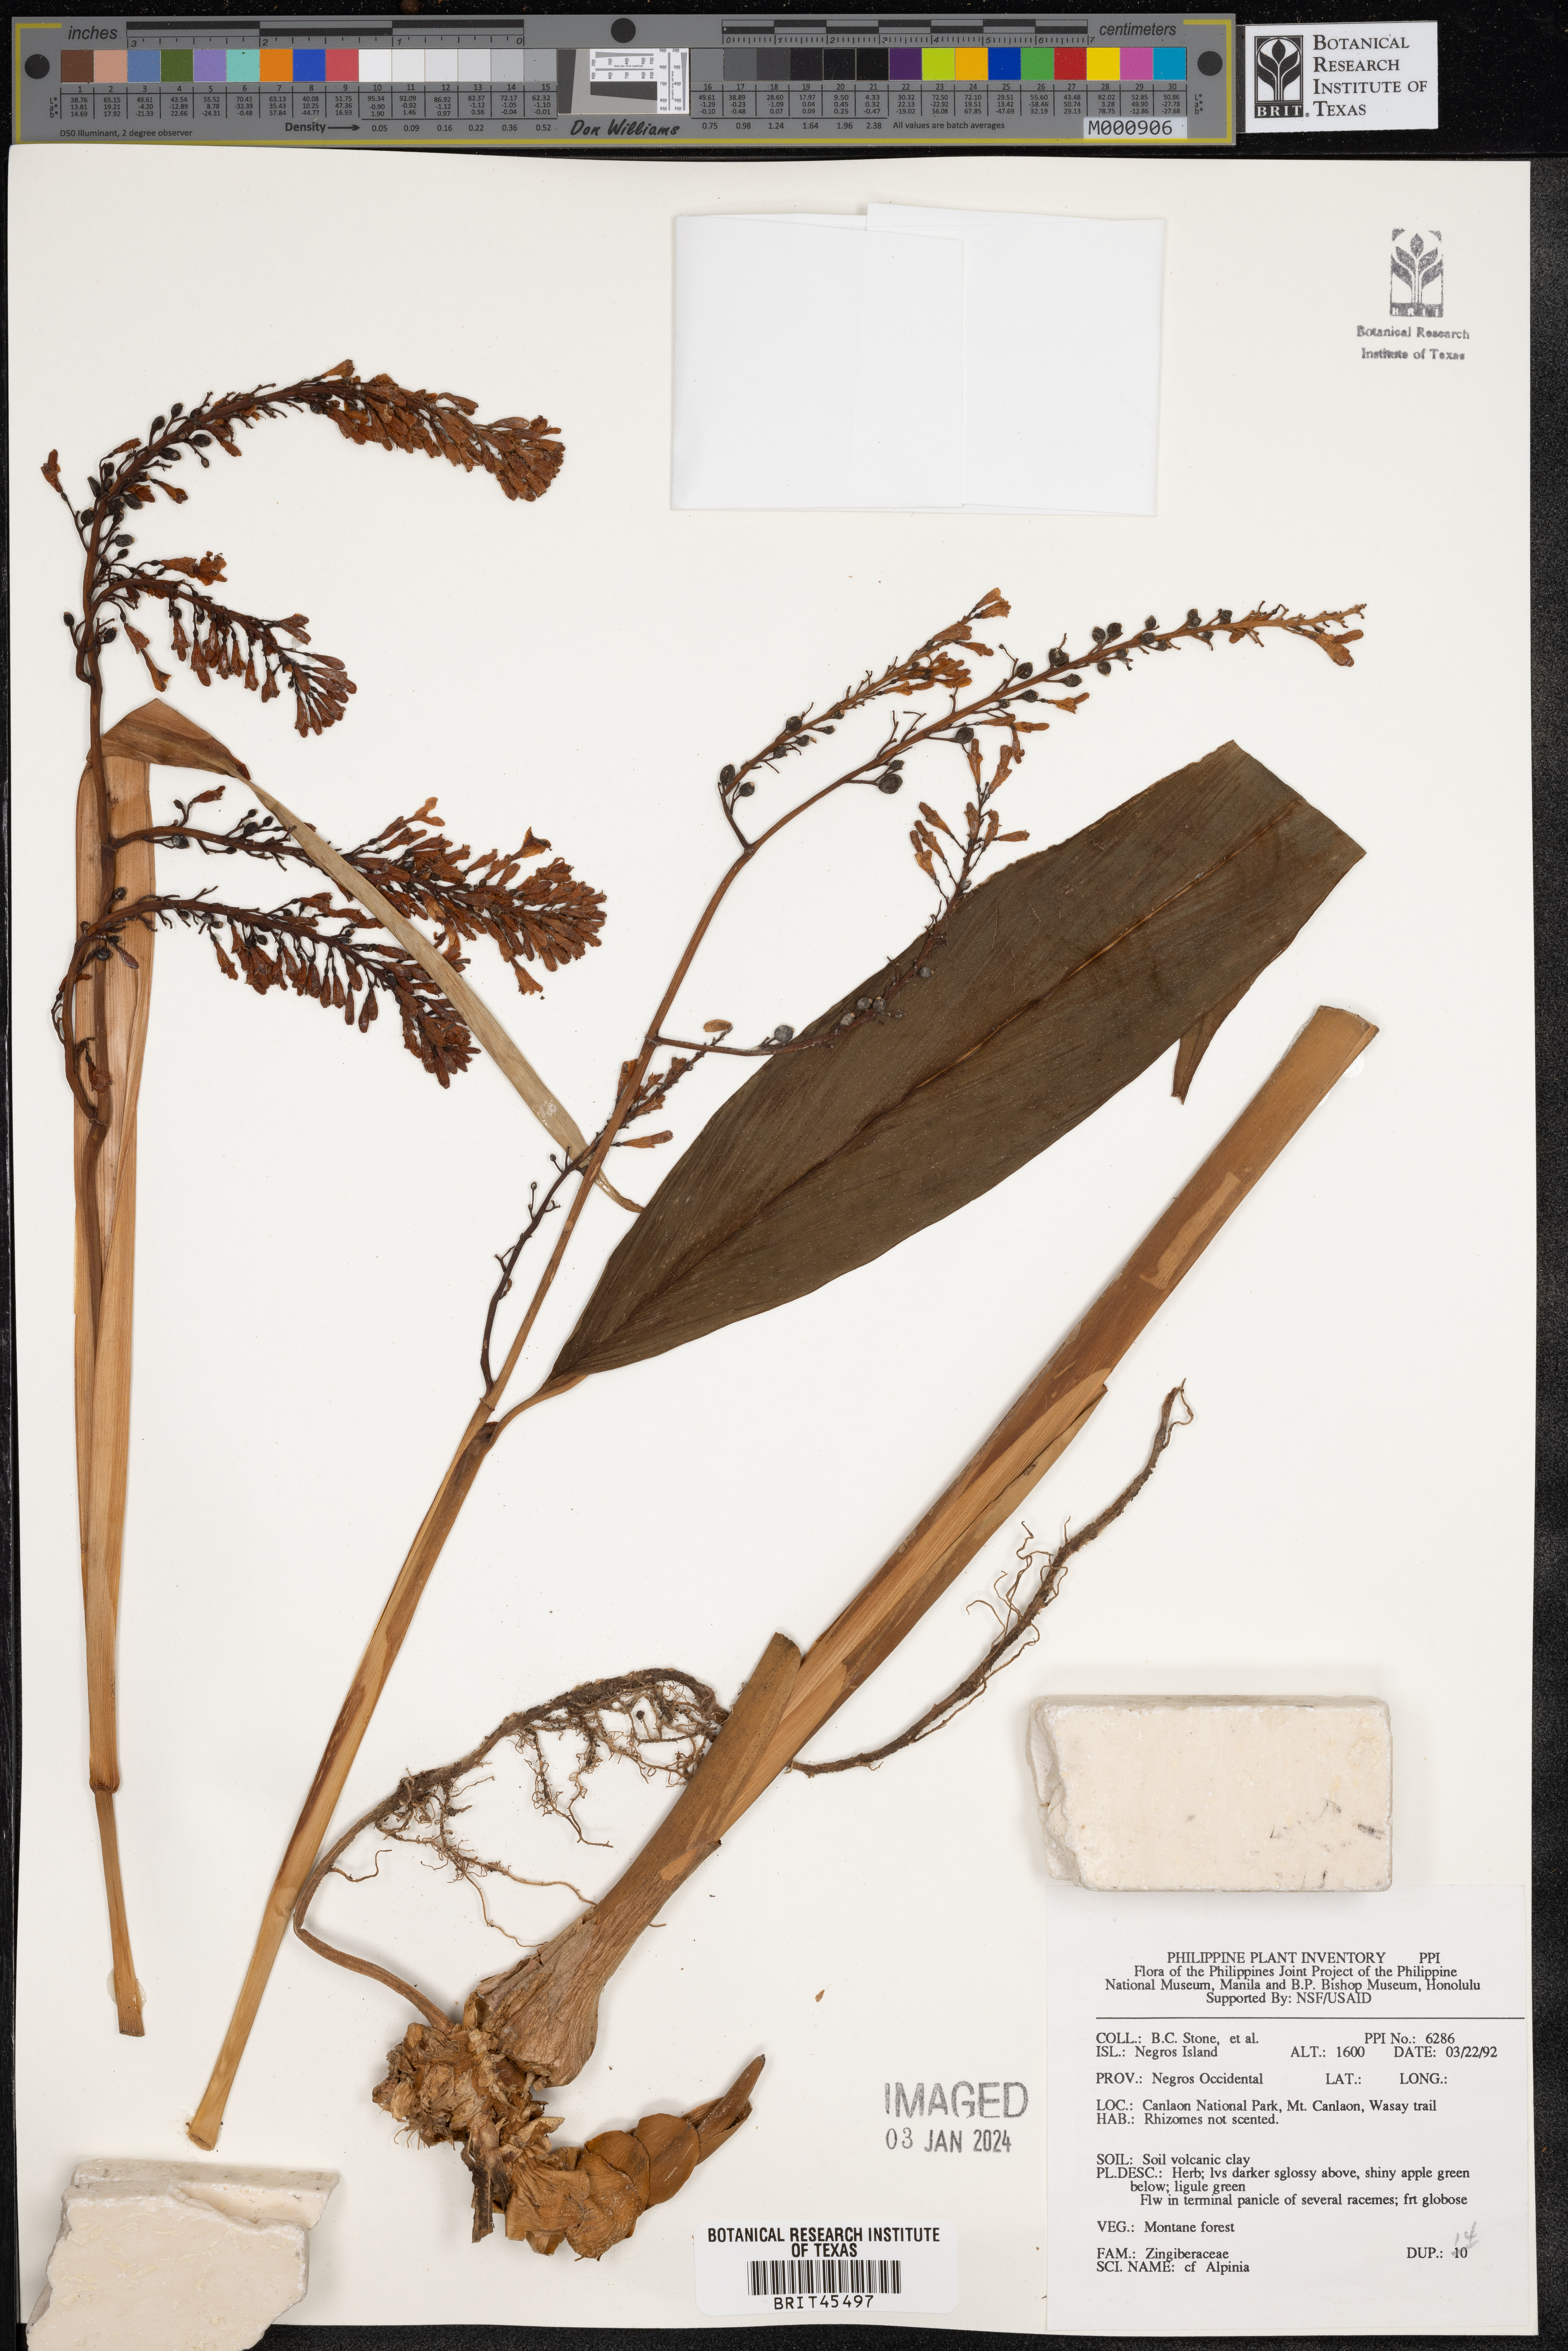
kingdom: Plantae
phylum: Tracheophyta
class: Liliopsida
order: Zingiberales
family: Zingiberaceae
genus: Alpinia
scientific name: Alpinia
